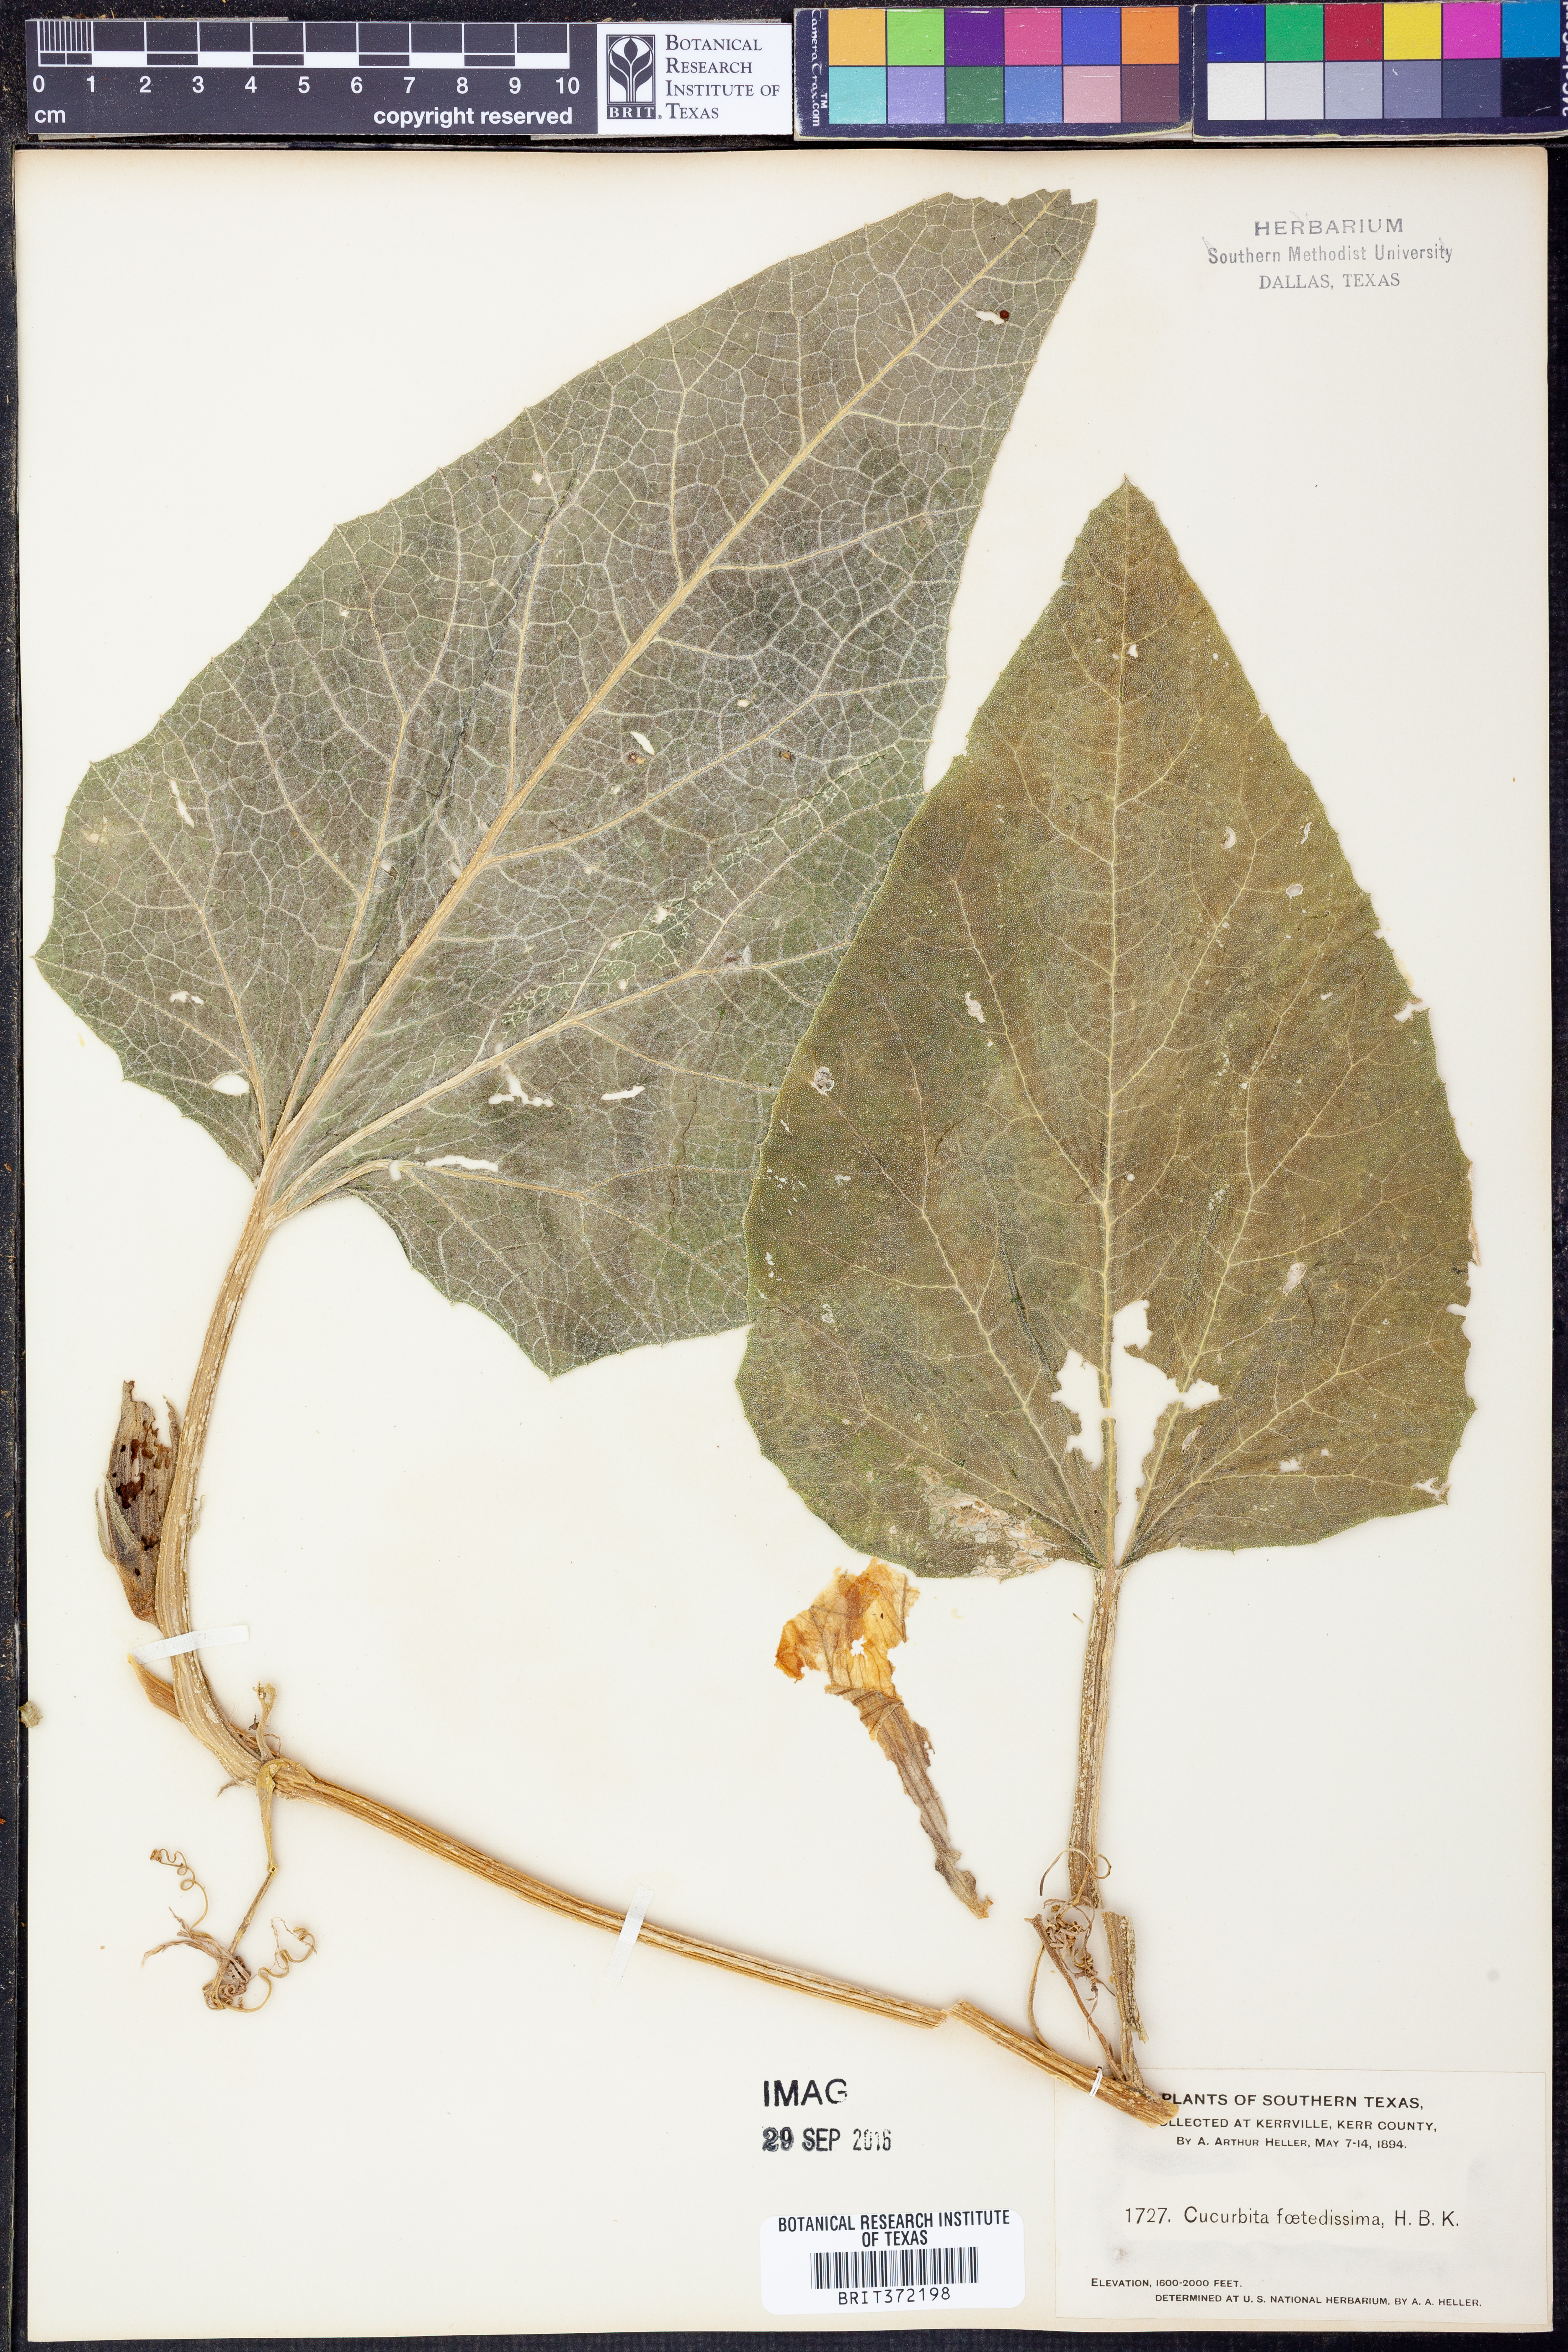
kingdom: Plantae
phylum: Tracheophyta
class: Magnoliopsida
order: Cucurbitales
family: Cucurbitaceae
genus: Cucurbita
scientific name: Cucurbita foetidissima
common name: Buffalo gourd
